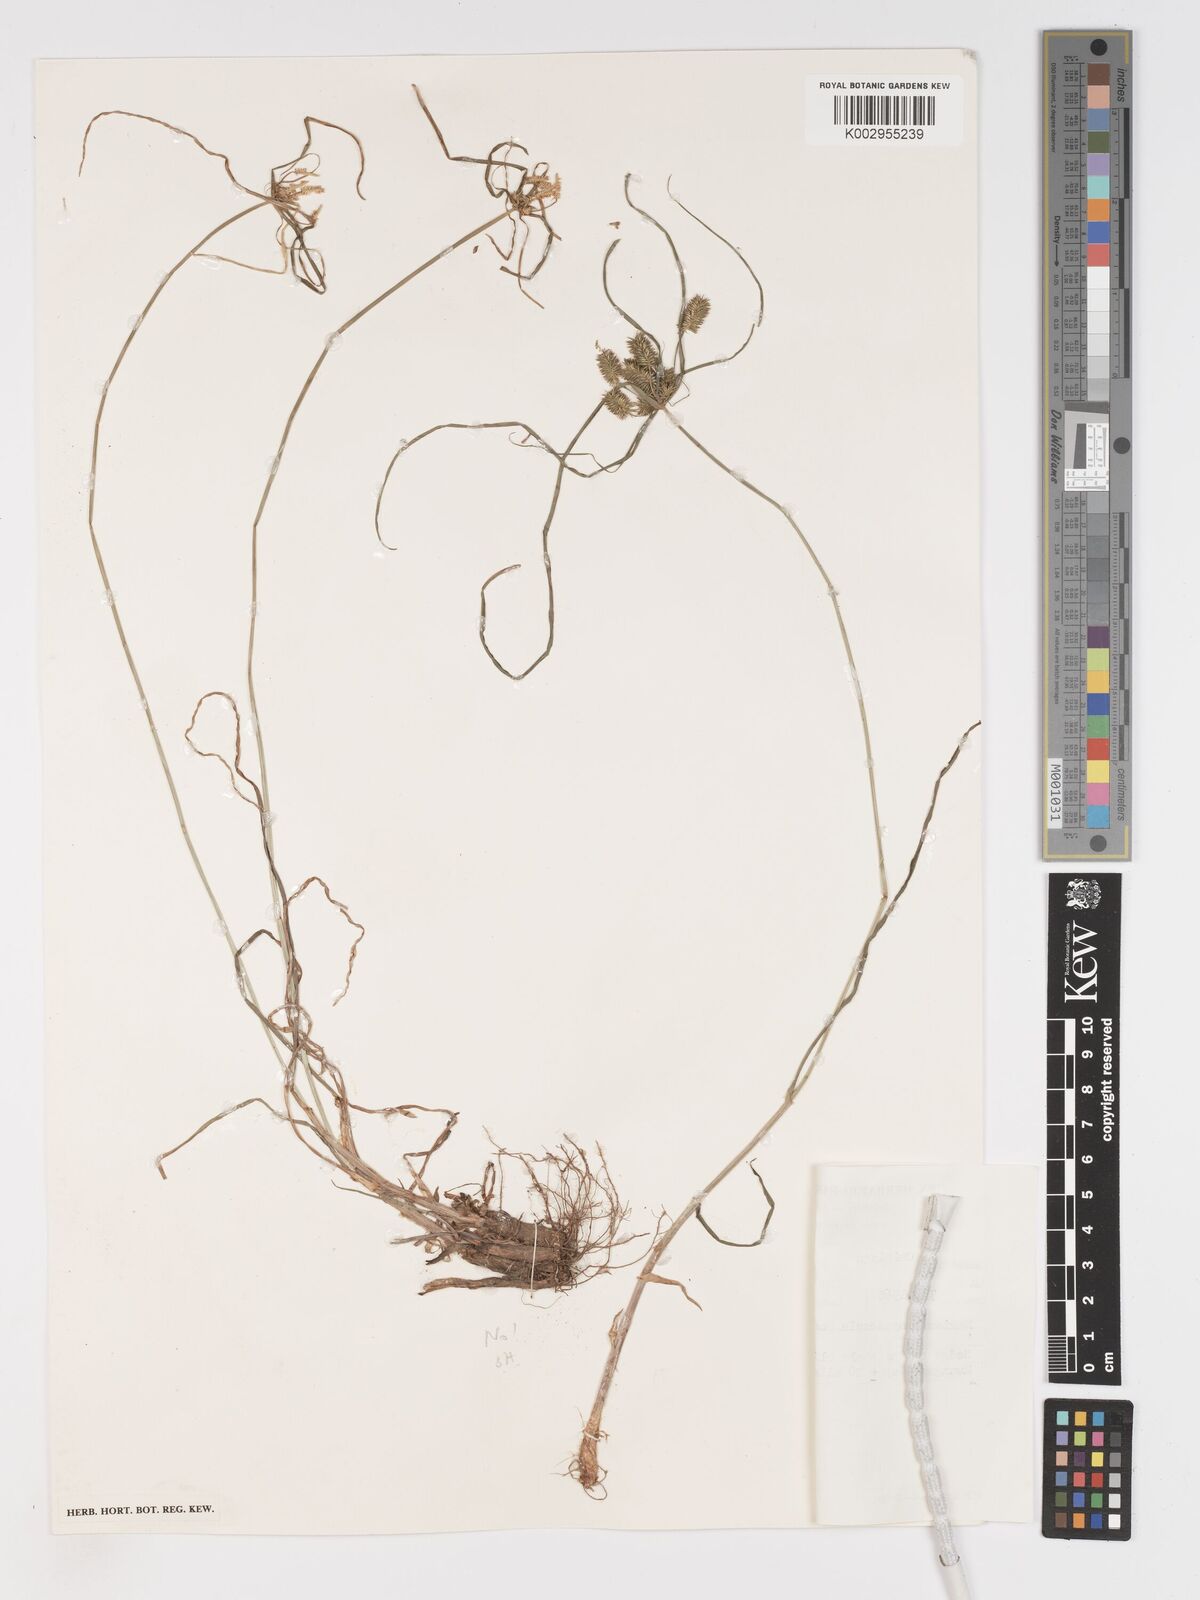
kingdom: Plantae
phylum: Tracheophyta
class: Liliopsida
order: Poales
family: Cyperaceae
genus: Cyperus
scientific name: Cyperus chersinus
